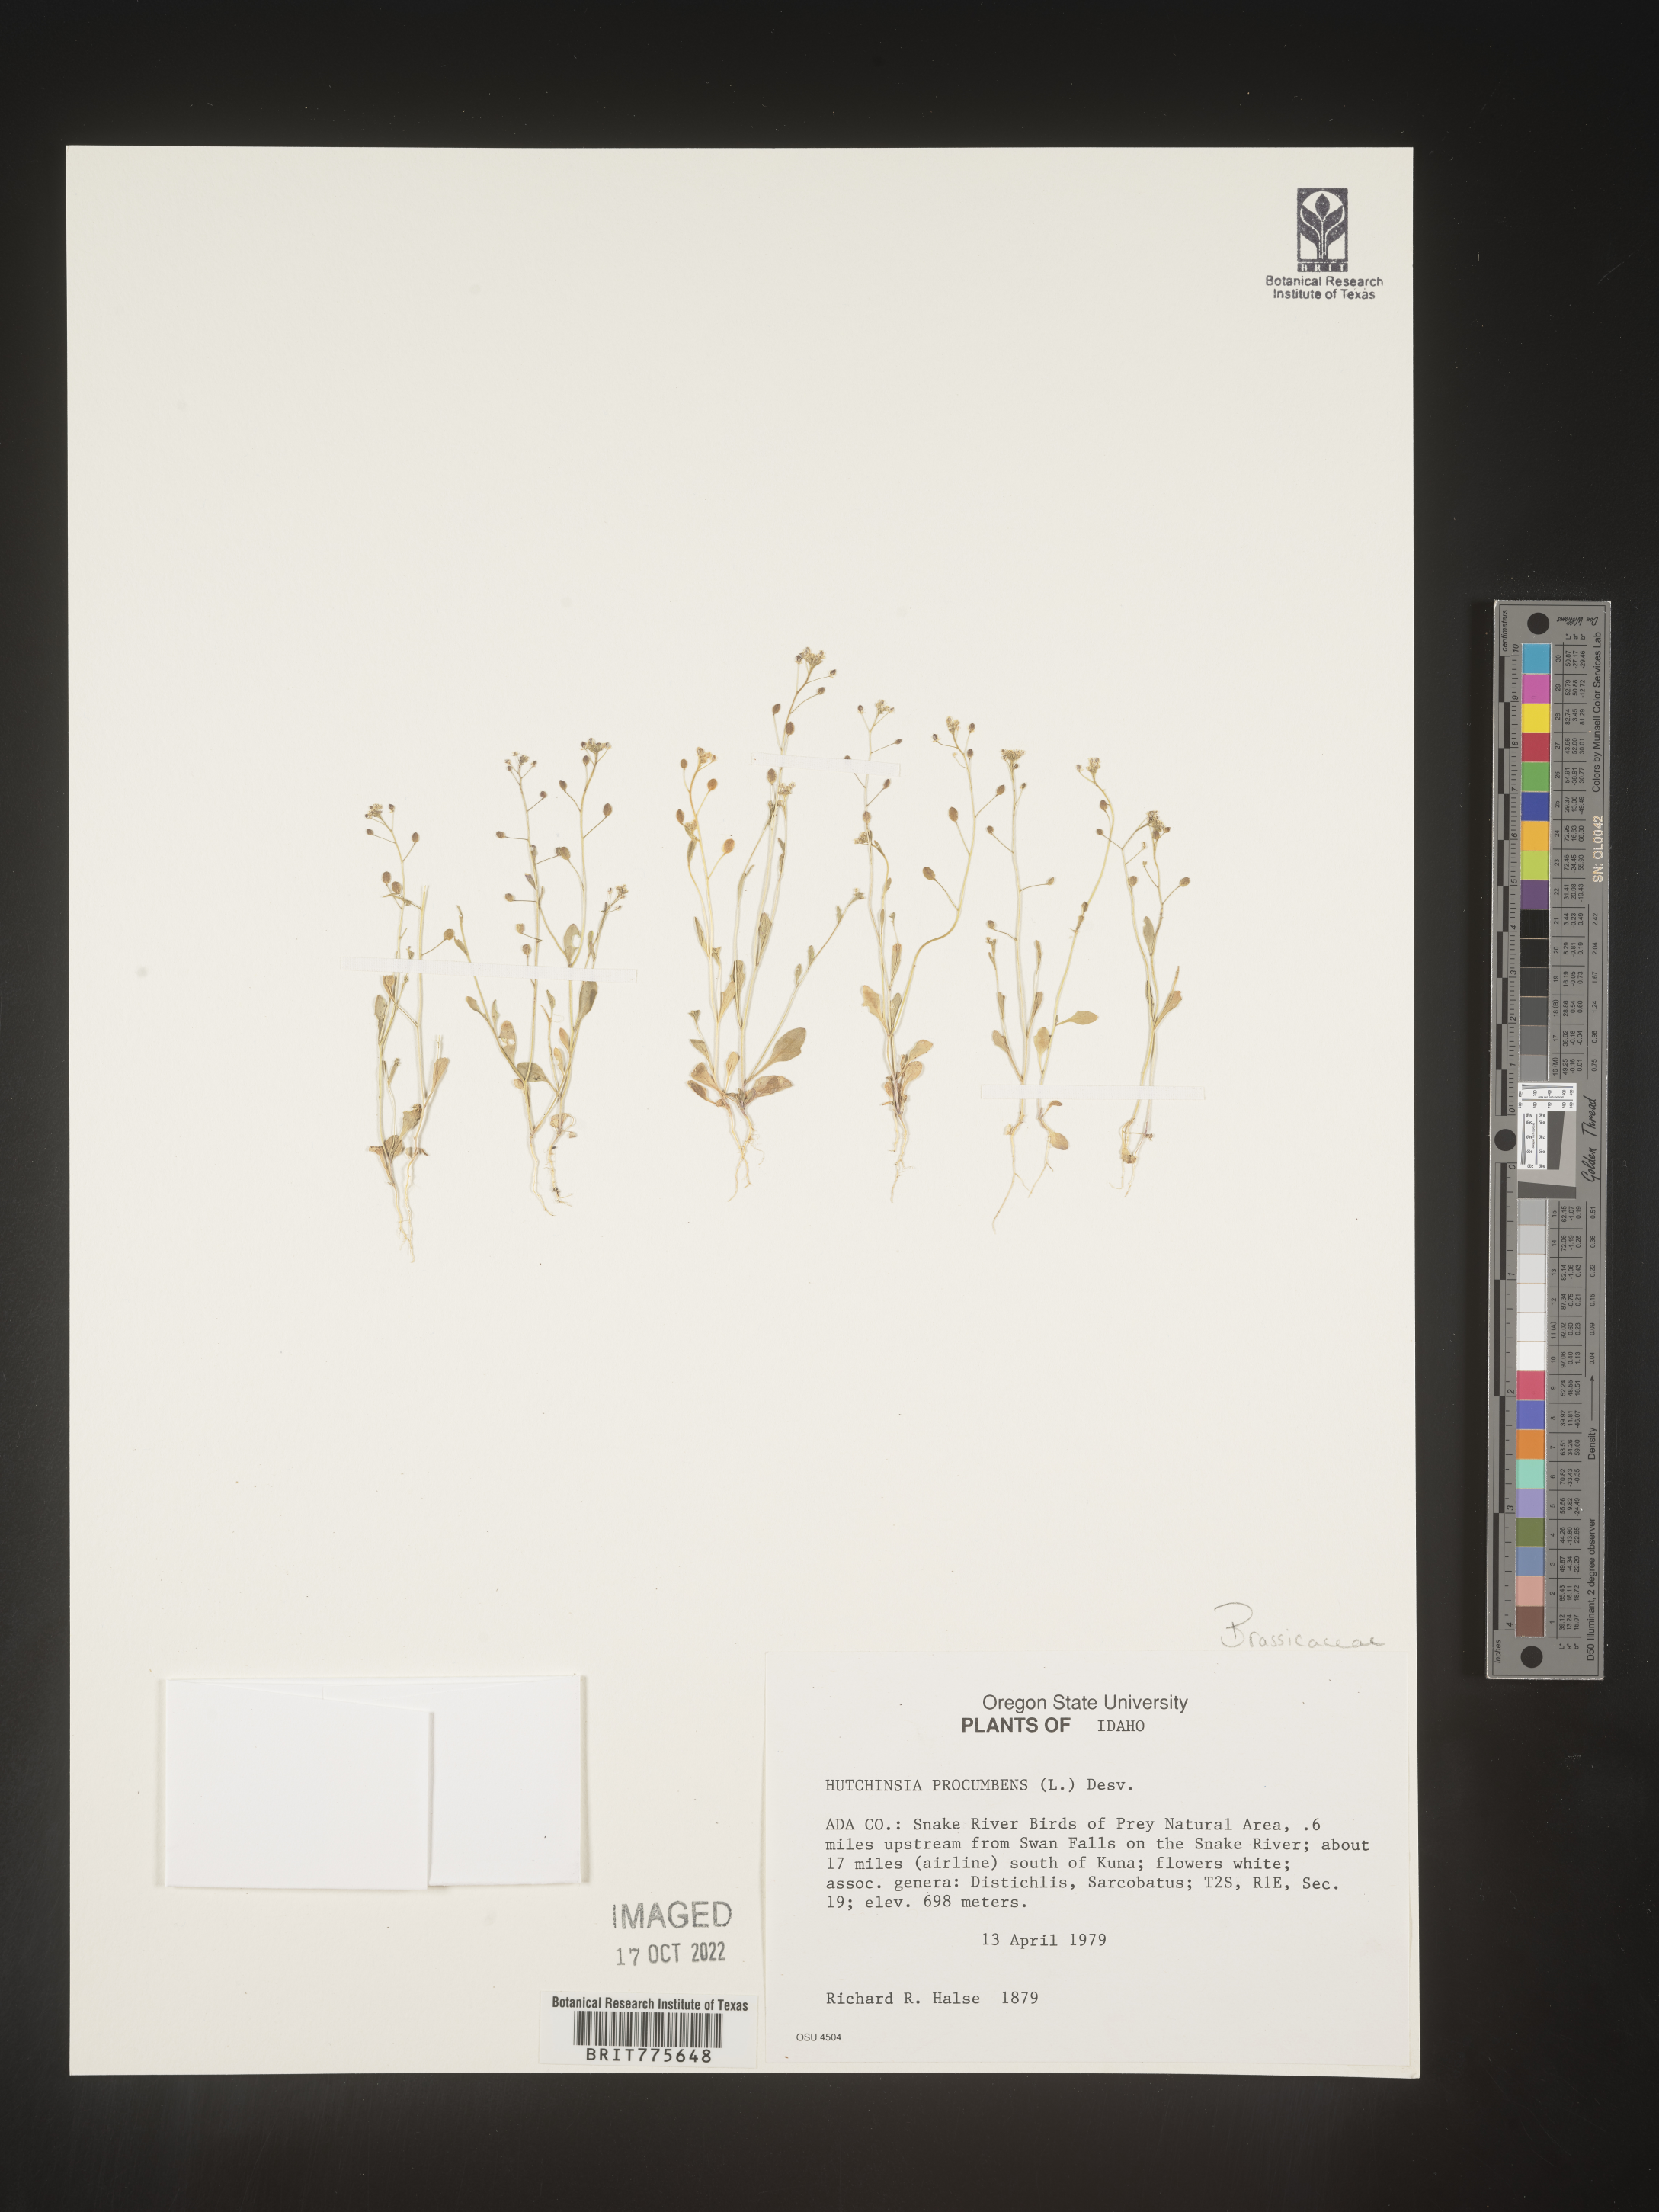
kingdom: Plantae
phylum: Rhodophyta
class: Florideophyceae
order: Ceramiales
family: Rhodomelaceae
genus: Hutchinsia
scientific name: Hutchinsia
